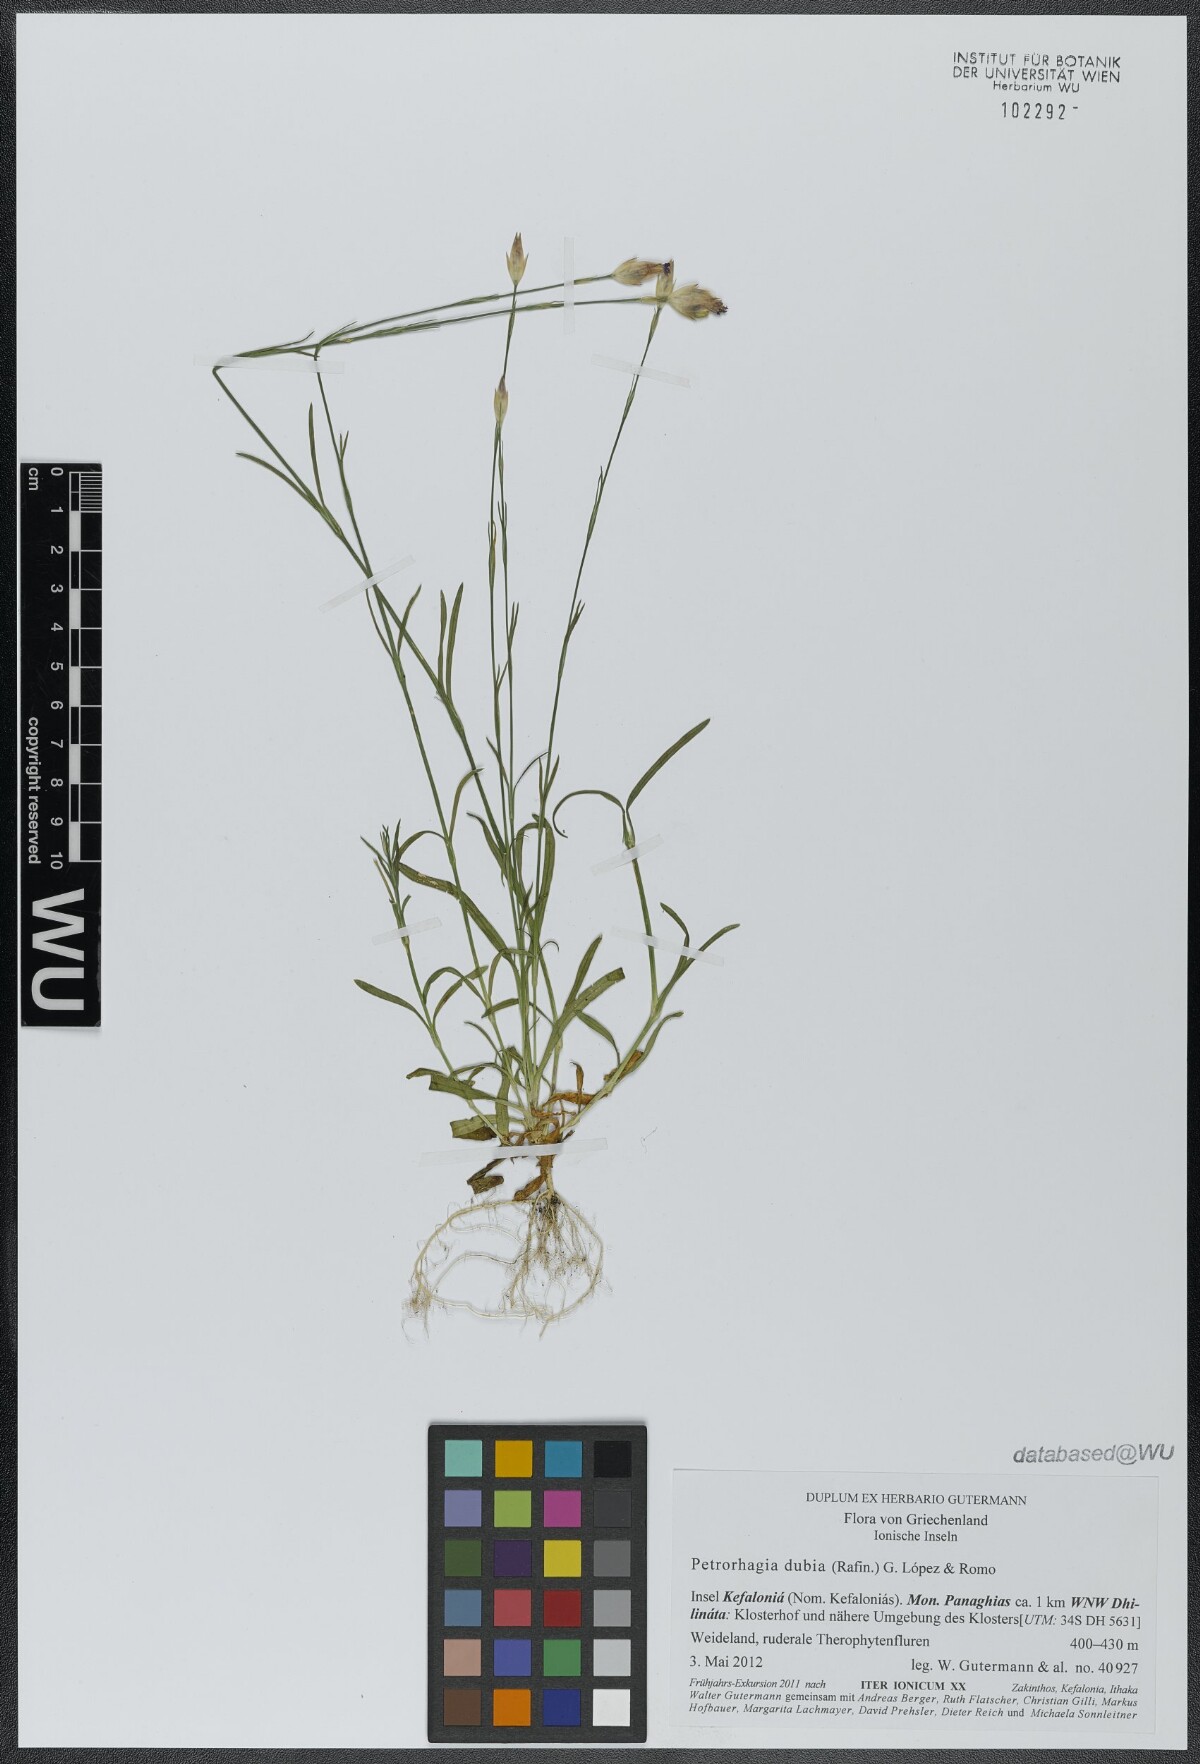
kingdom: Plantae
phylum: Tracheophyta
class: Magnoliopsida
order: Caryophyllales
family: Caryophyllaceae
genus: Petrorhagia
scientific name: Petrorhagia dubia
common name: Hairypink
